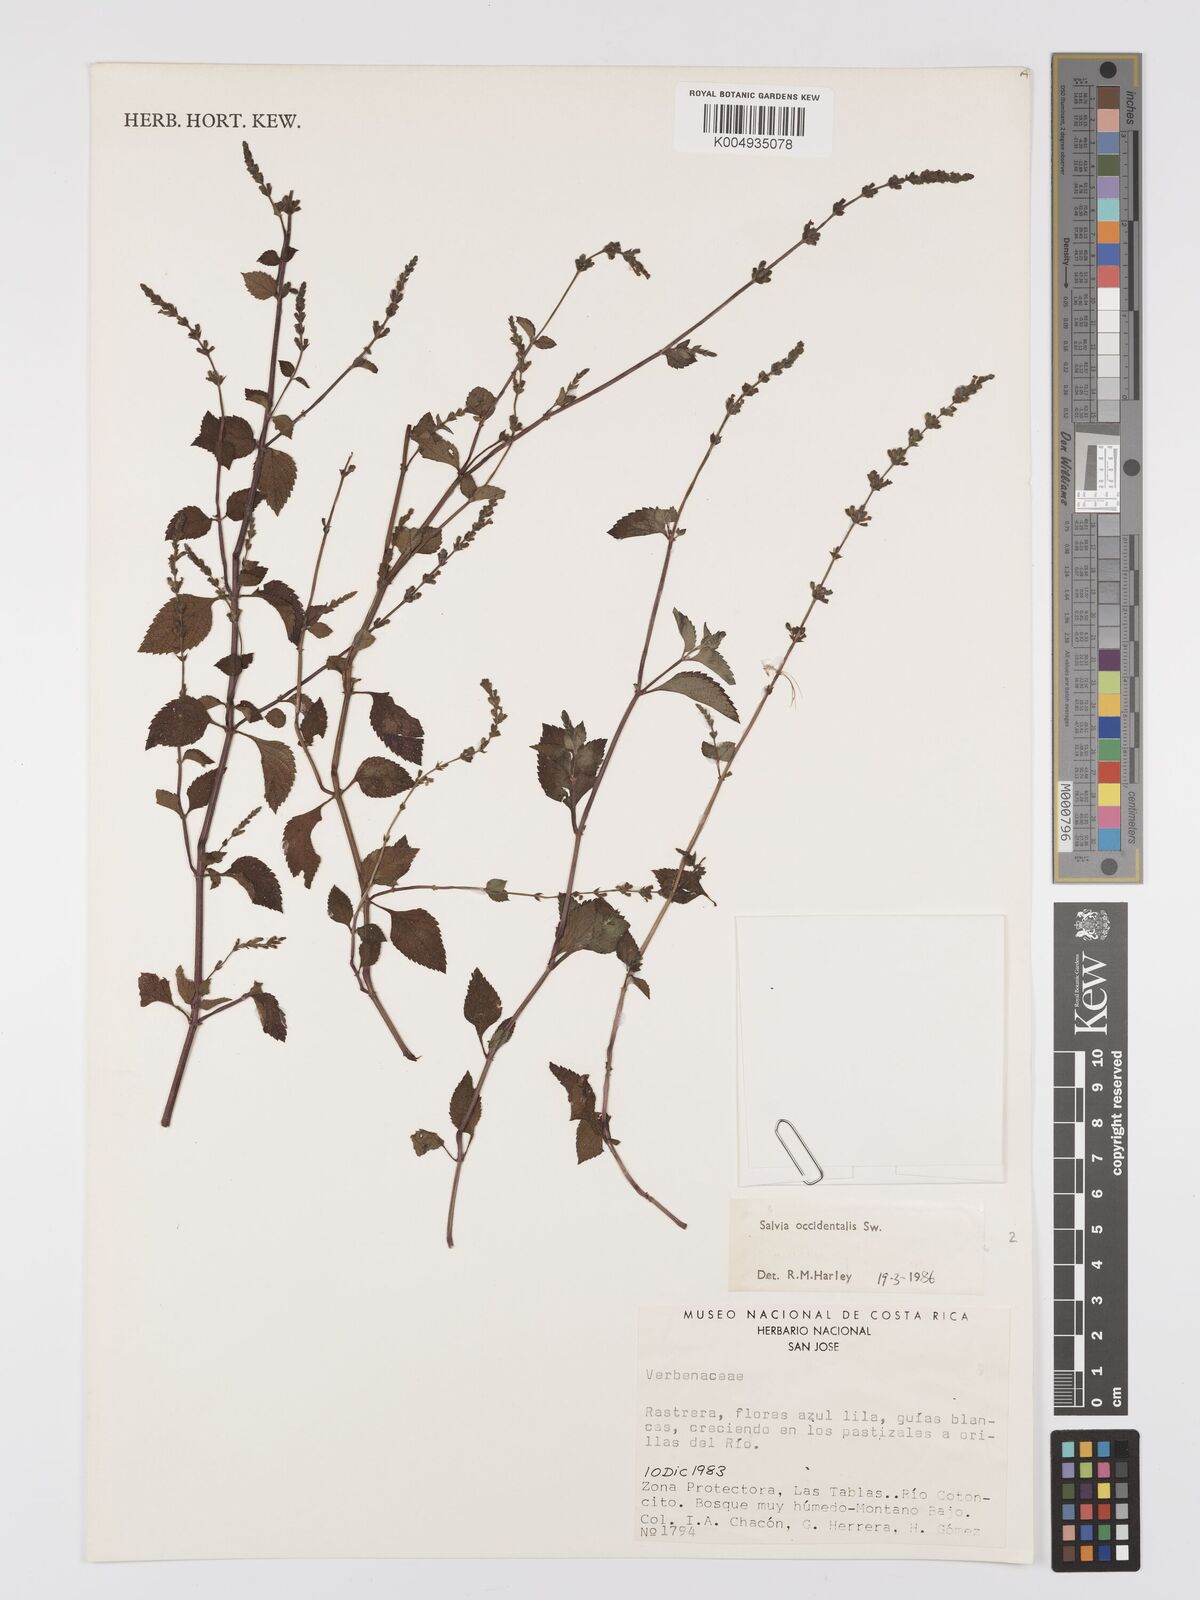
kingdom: Plantae
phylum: Tracheophyta
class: Magnoliopsida
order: Lamiales
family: Lamiaceae
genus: Salvia
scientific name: Salvia occidentalis
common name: West indian sage
